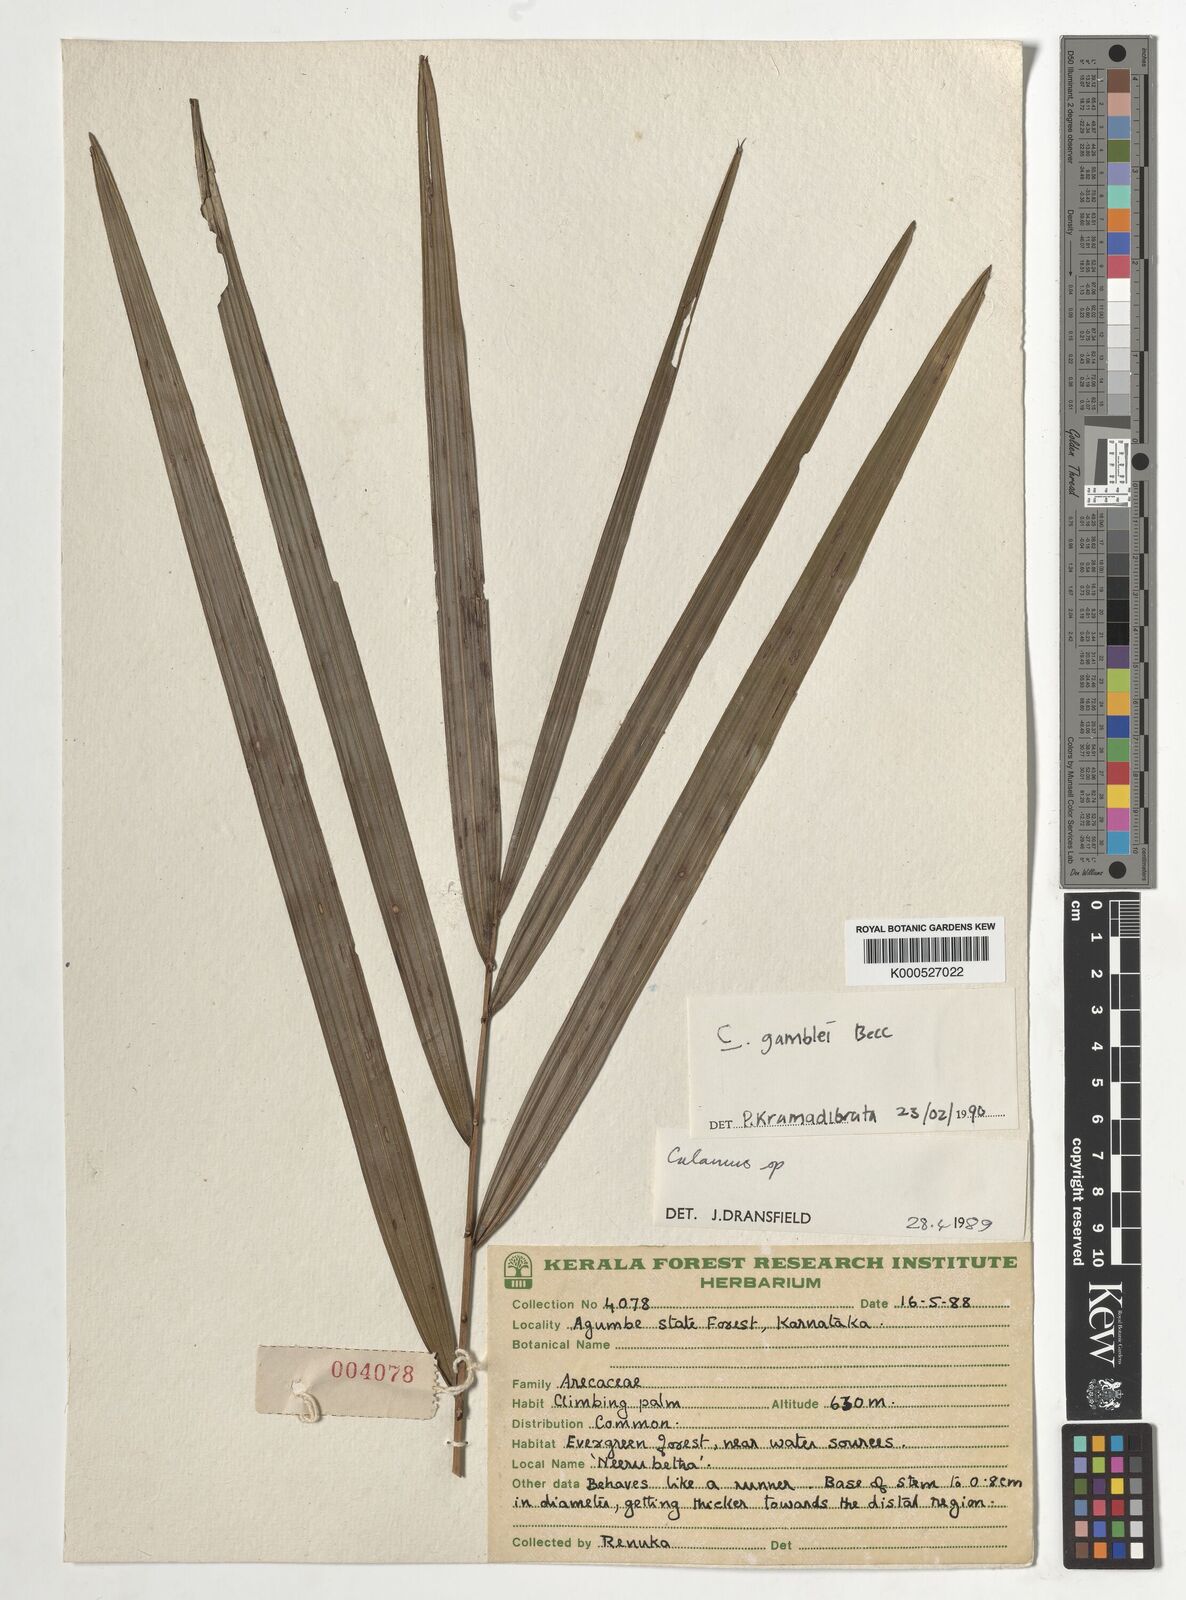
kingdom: Plantae
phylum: Tracheophyta
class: Liliopsida
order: Arecales
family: Arecaceae
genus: Calamus
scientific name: Calamus gamblei
